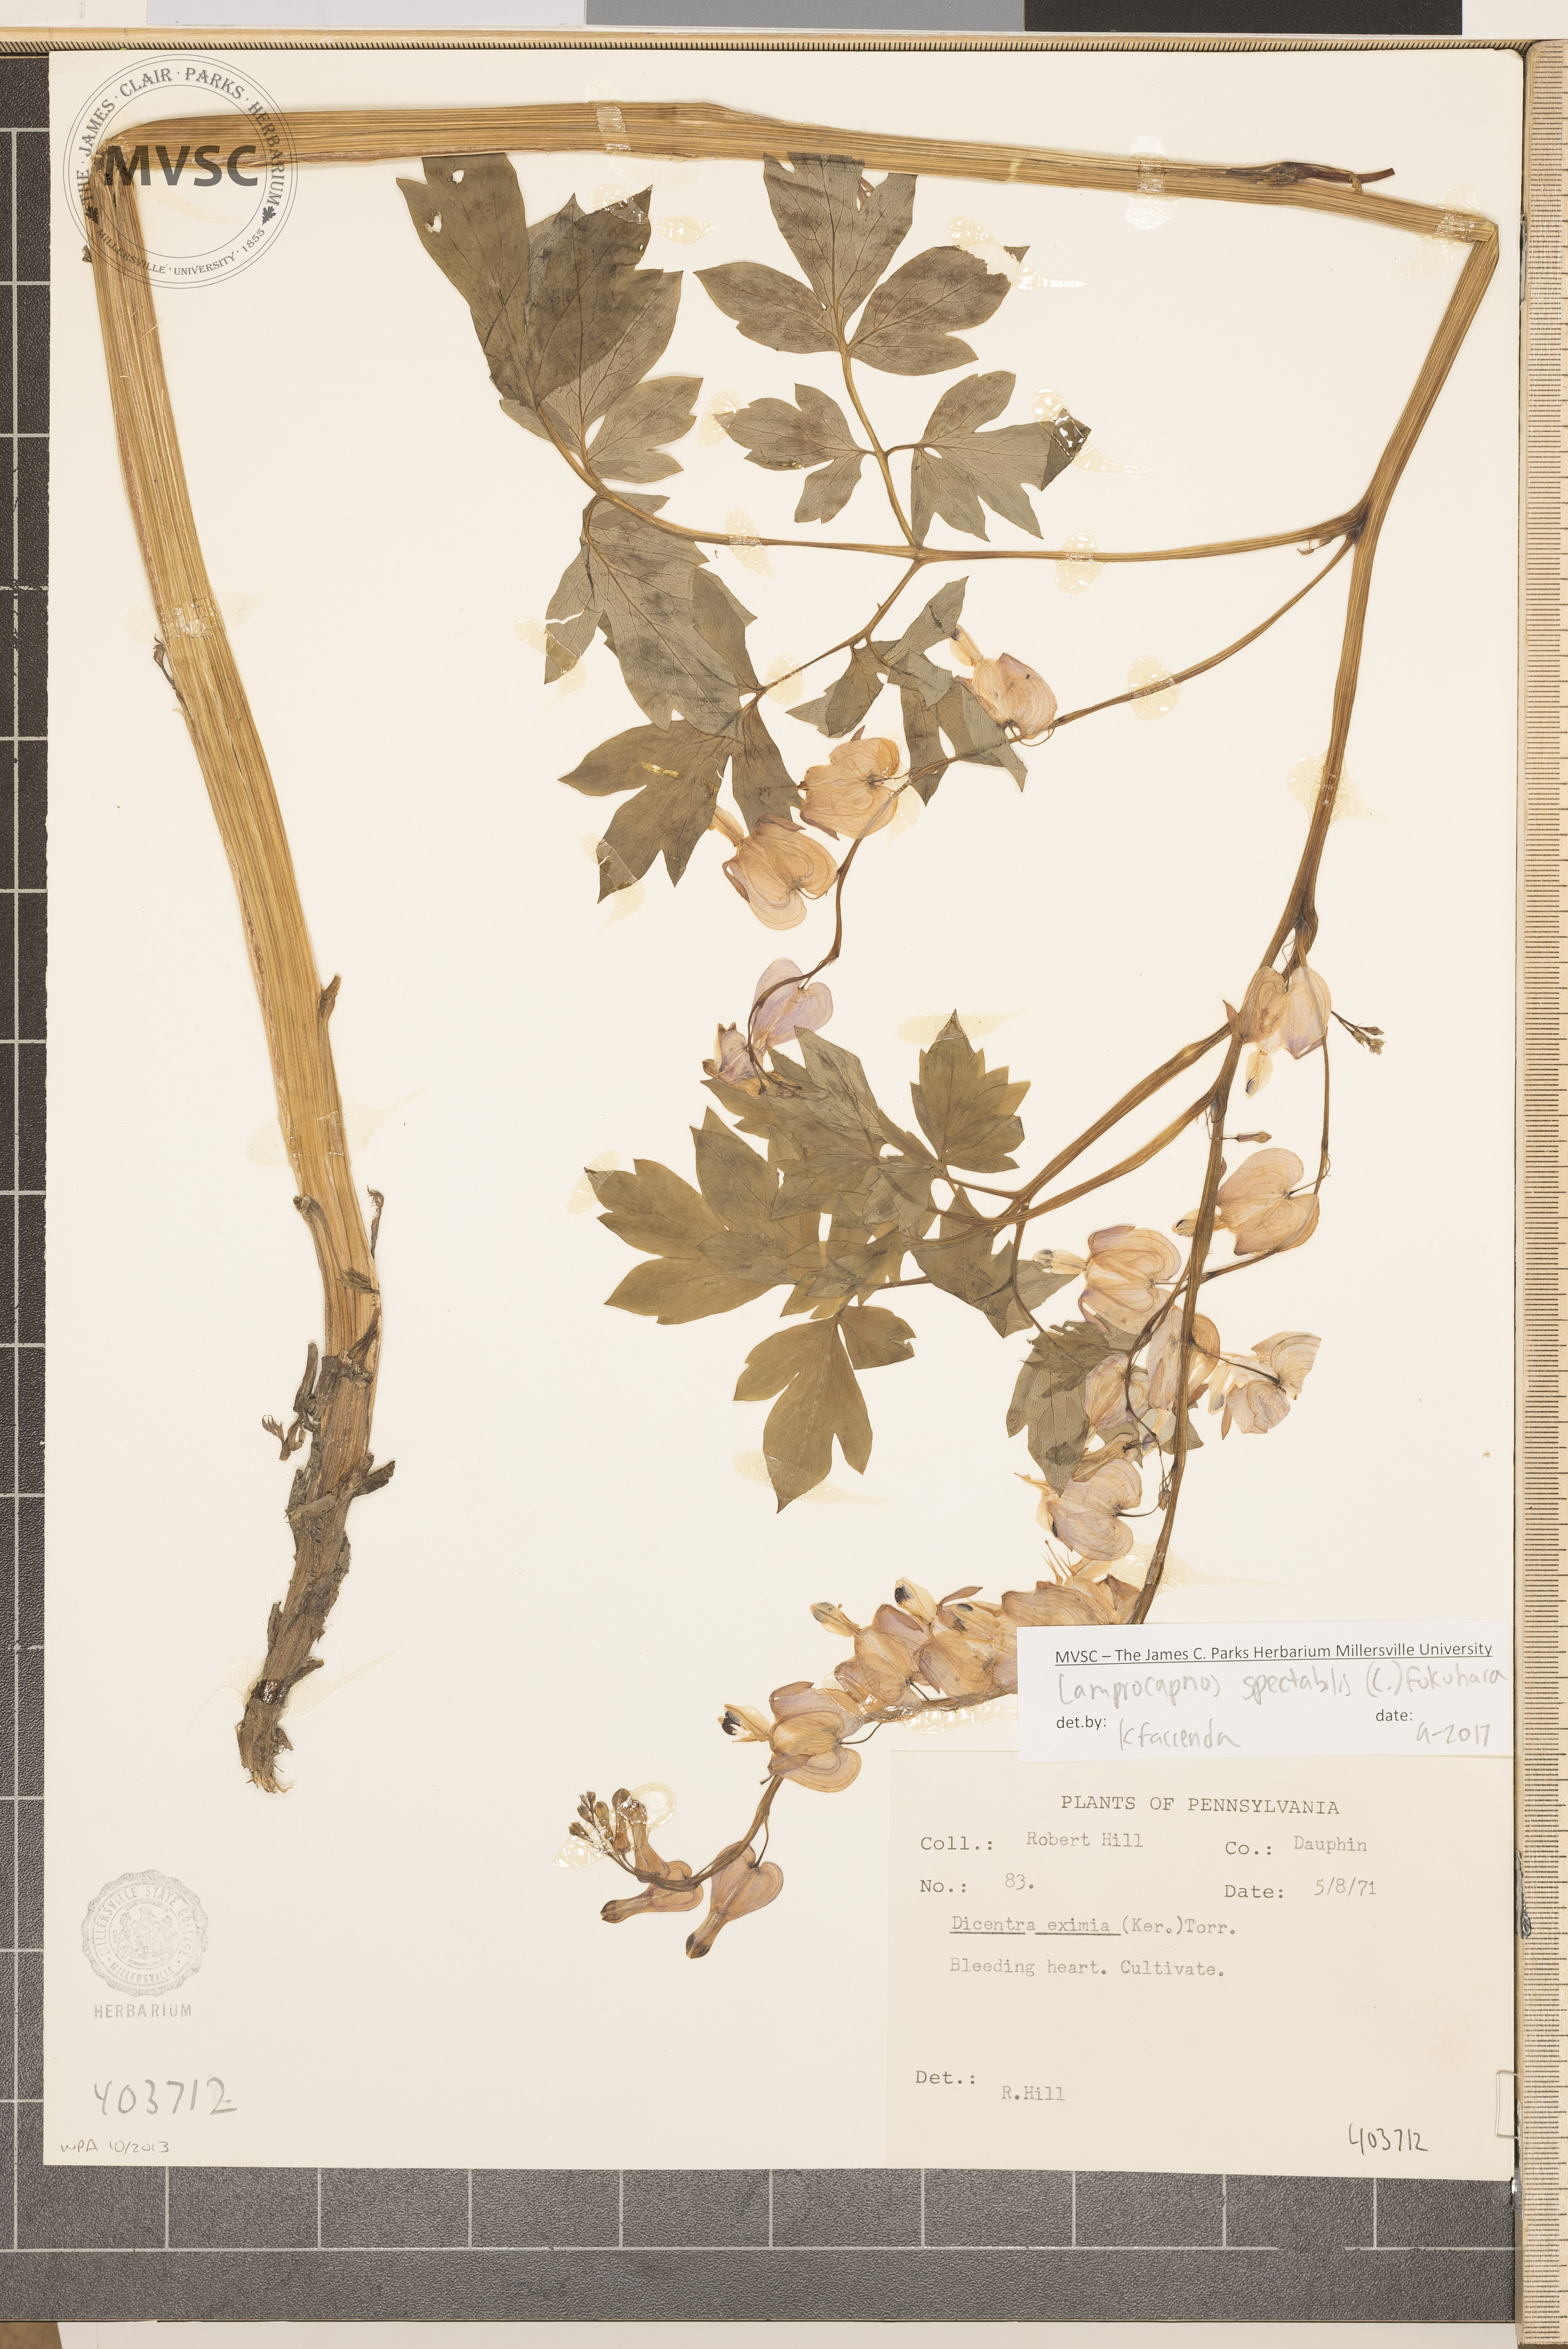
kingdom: Plantae
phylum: Tracheophyta
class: Magnoliopsida
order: Ranunculales
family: Papaveraceae
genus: Lamprocapnos
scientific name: Lamprocapnos spectabilis
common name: Bleeding Heart
